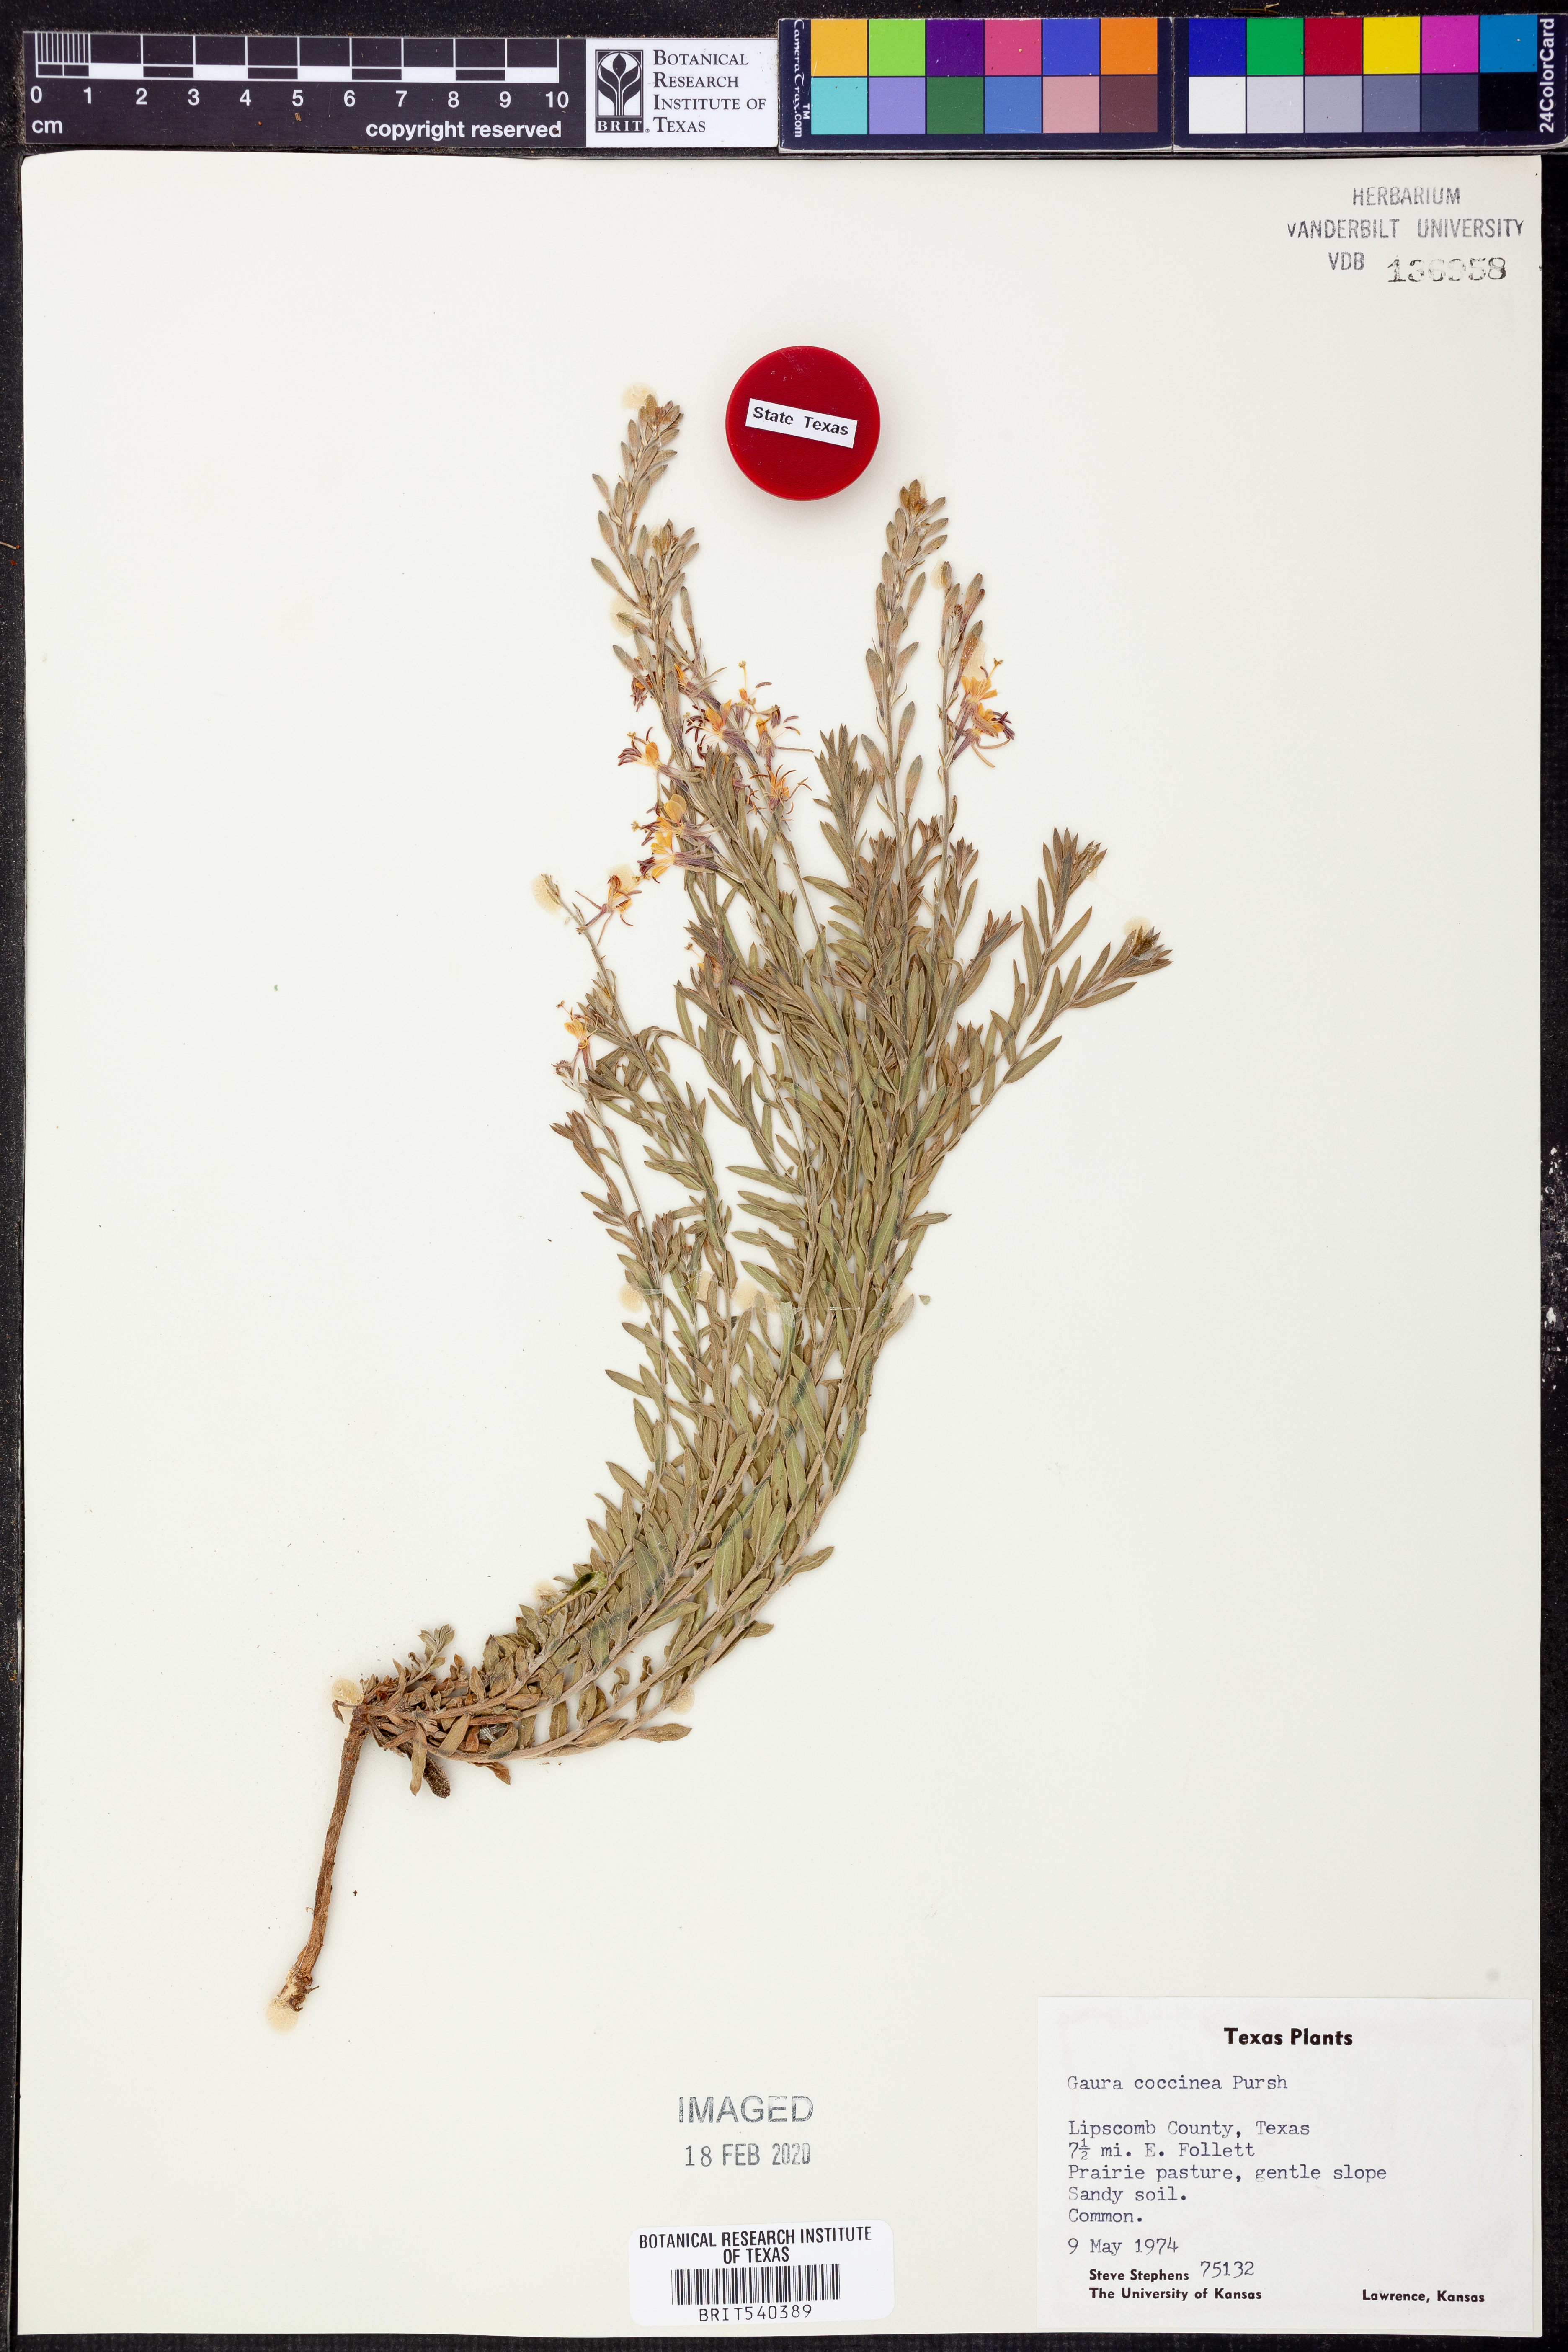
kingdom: Plantae
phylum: Tracheophyta
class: Magnoliopsida
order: Myrtales
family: Onagraceae
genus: Oenothera
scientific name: Oenothera suffrutescens
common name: Scarlet beeblossom
